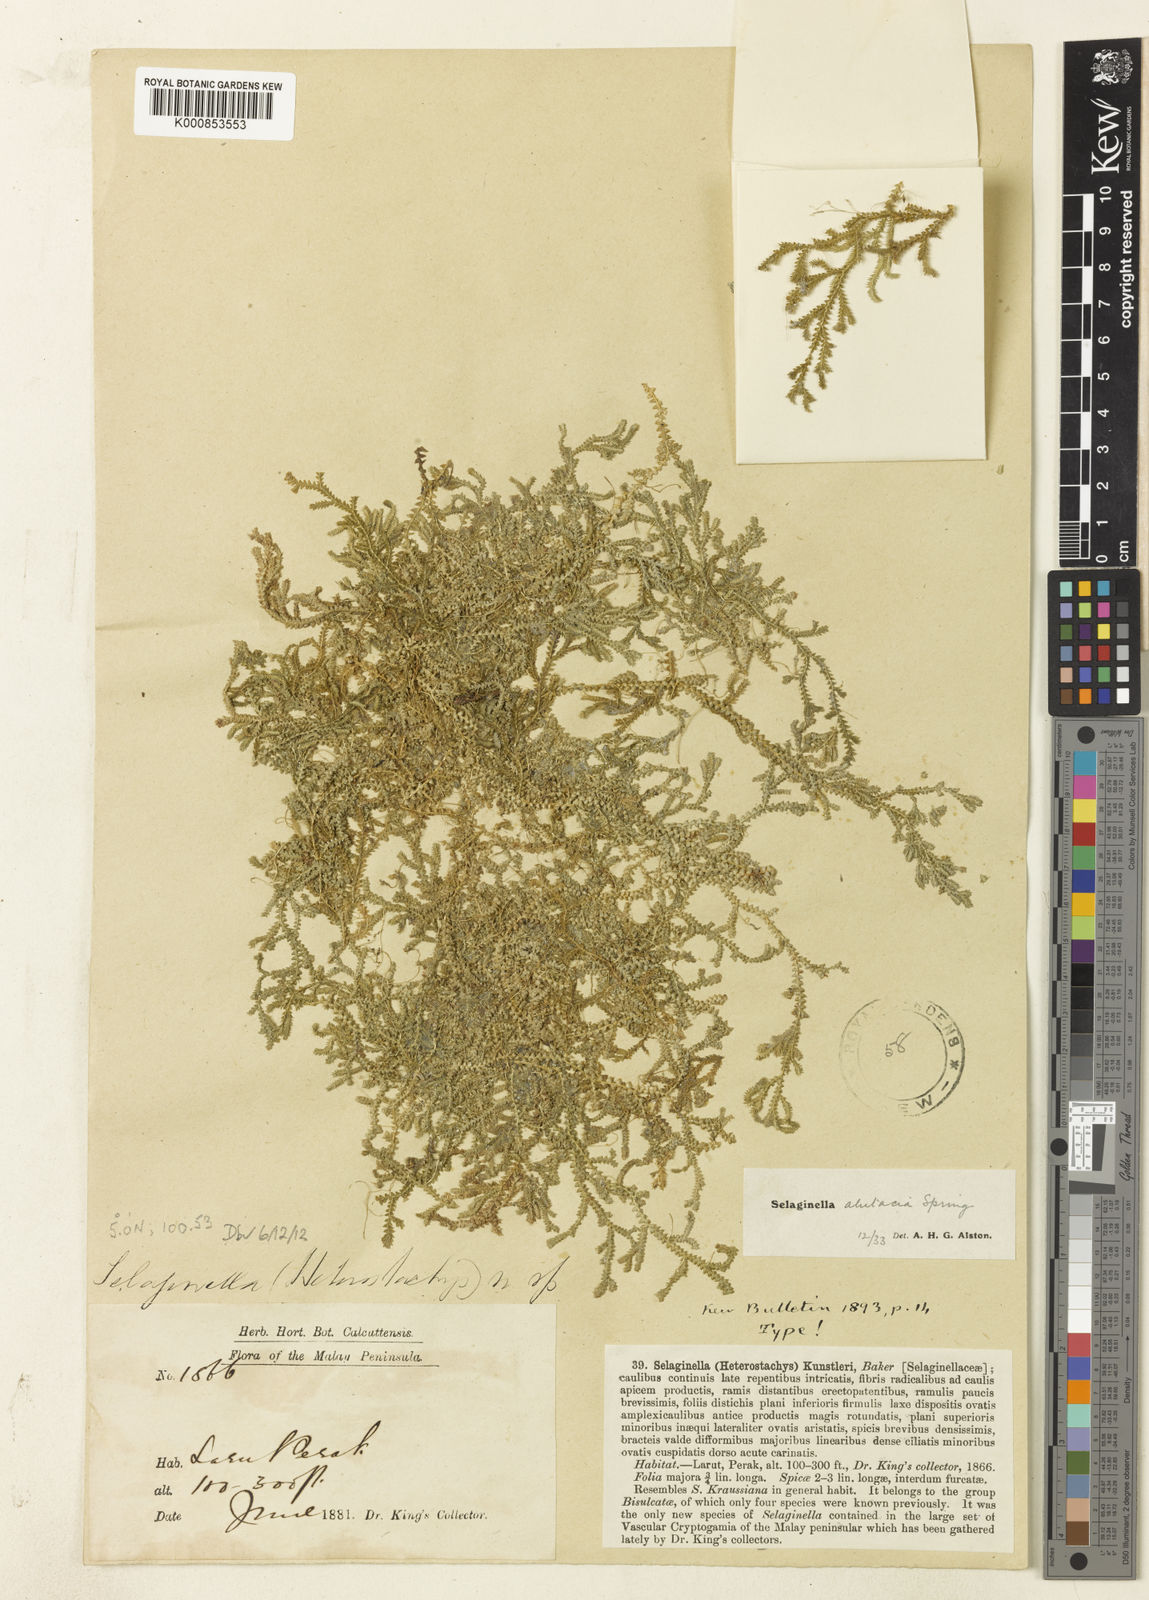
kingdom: Plantae
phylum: Tracheophyta
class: Lycopodiopsida
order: Selaginellales
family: Selaginellaceae
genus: Selaginella
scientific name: Selaginella
